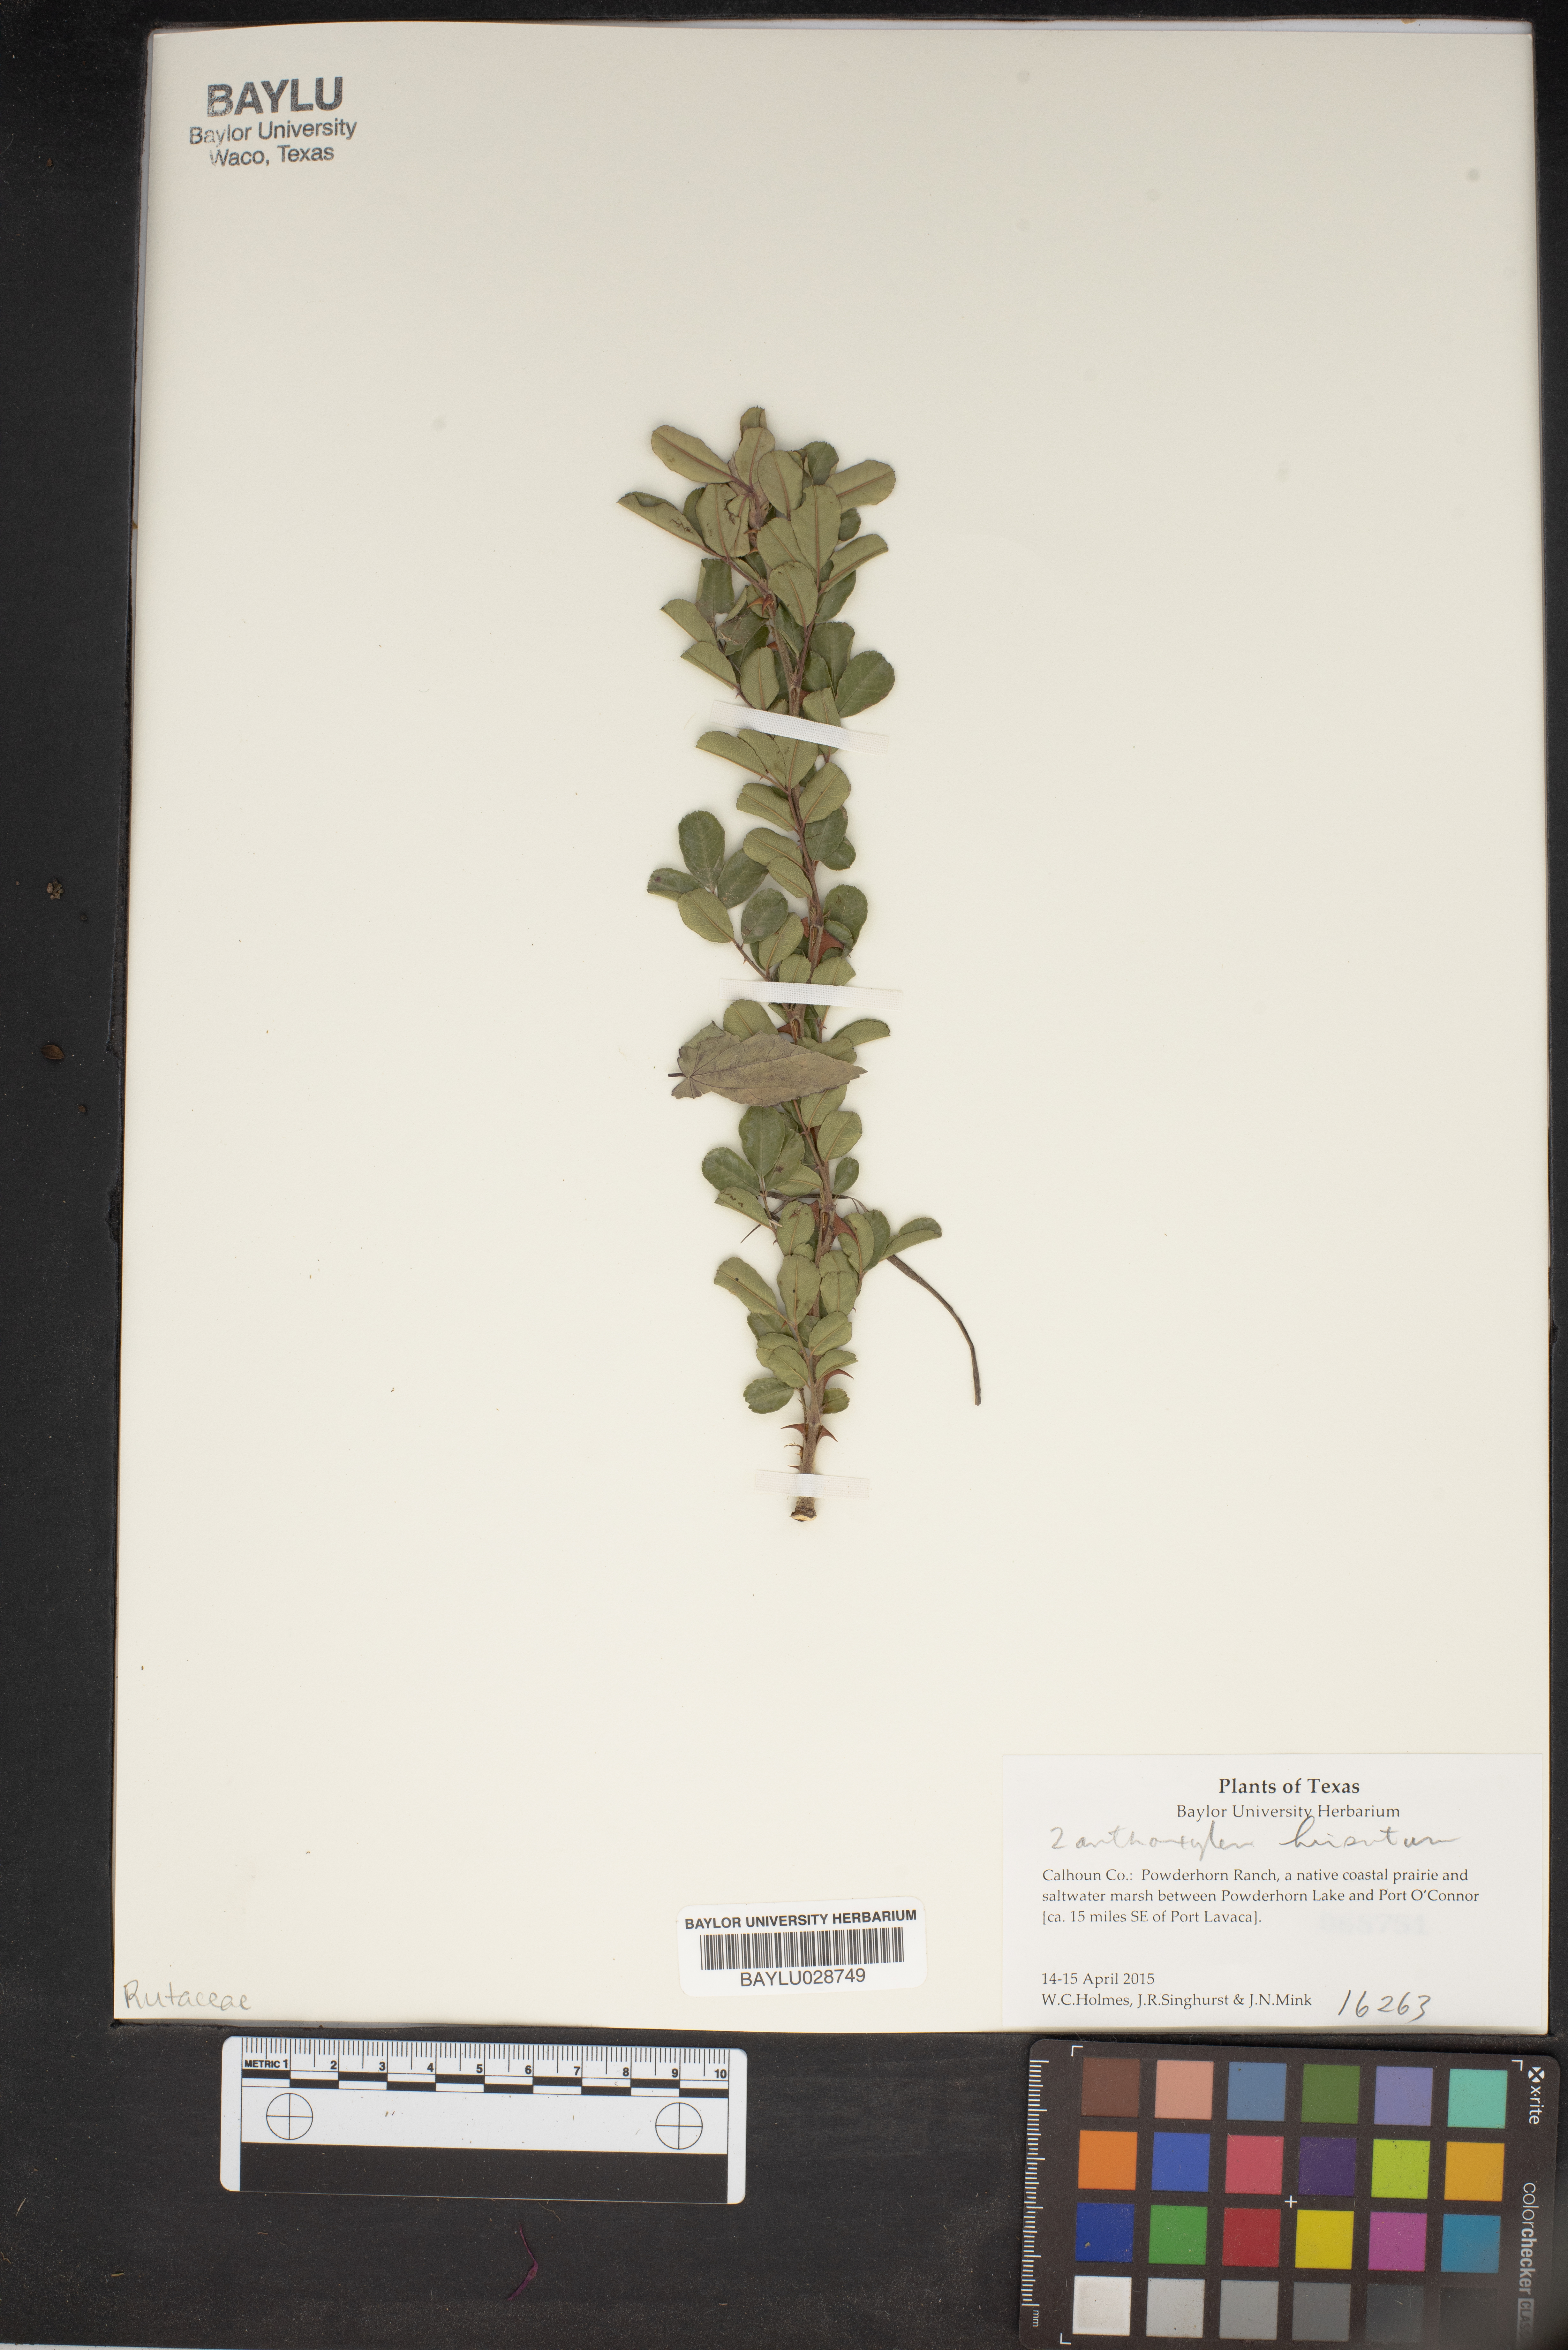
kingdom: Plantae
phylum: Tracheophyta
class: Magnoliopsida
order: Sapindales
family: Rutaceae
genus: Zanthoxylum
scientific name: Zanthoxylum clava-herculis
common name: Hercules'-club
